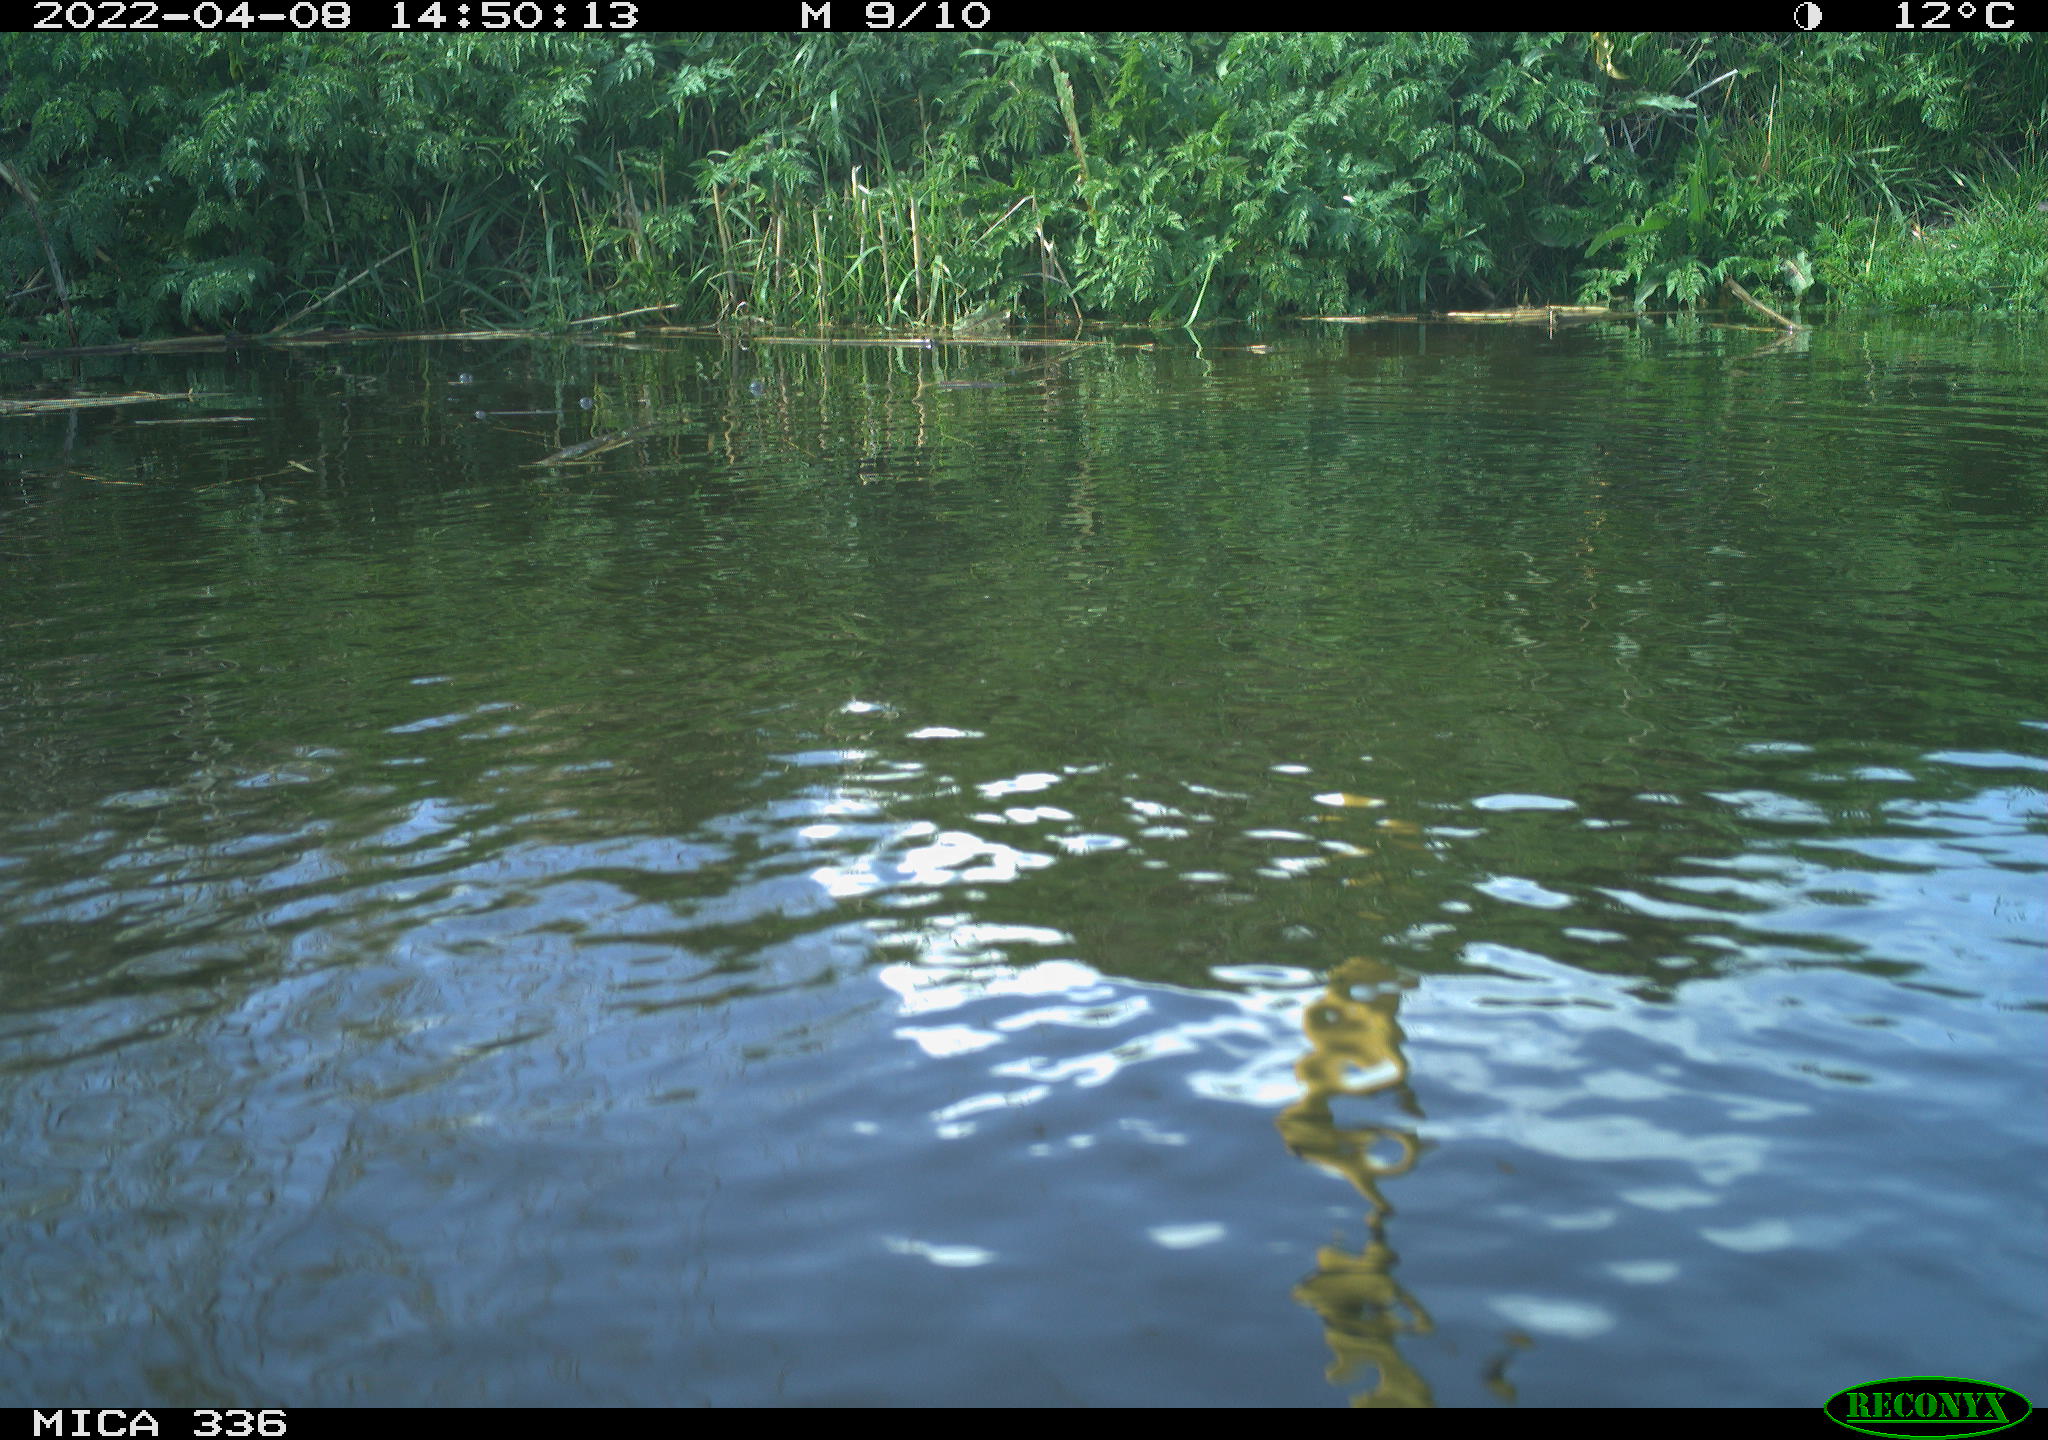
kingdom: Animalia
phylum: Chordata
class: Aves
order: Podicipediformes
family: Podicipedidae
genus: Podiceps
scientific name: Podiceps cristatus
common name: Great crested grebe
